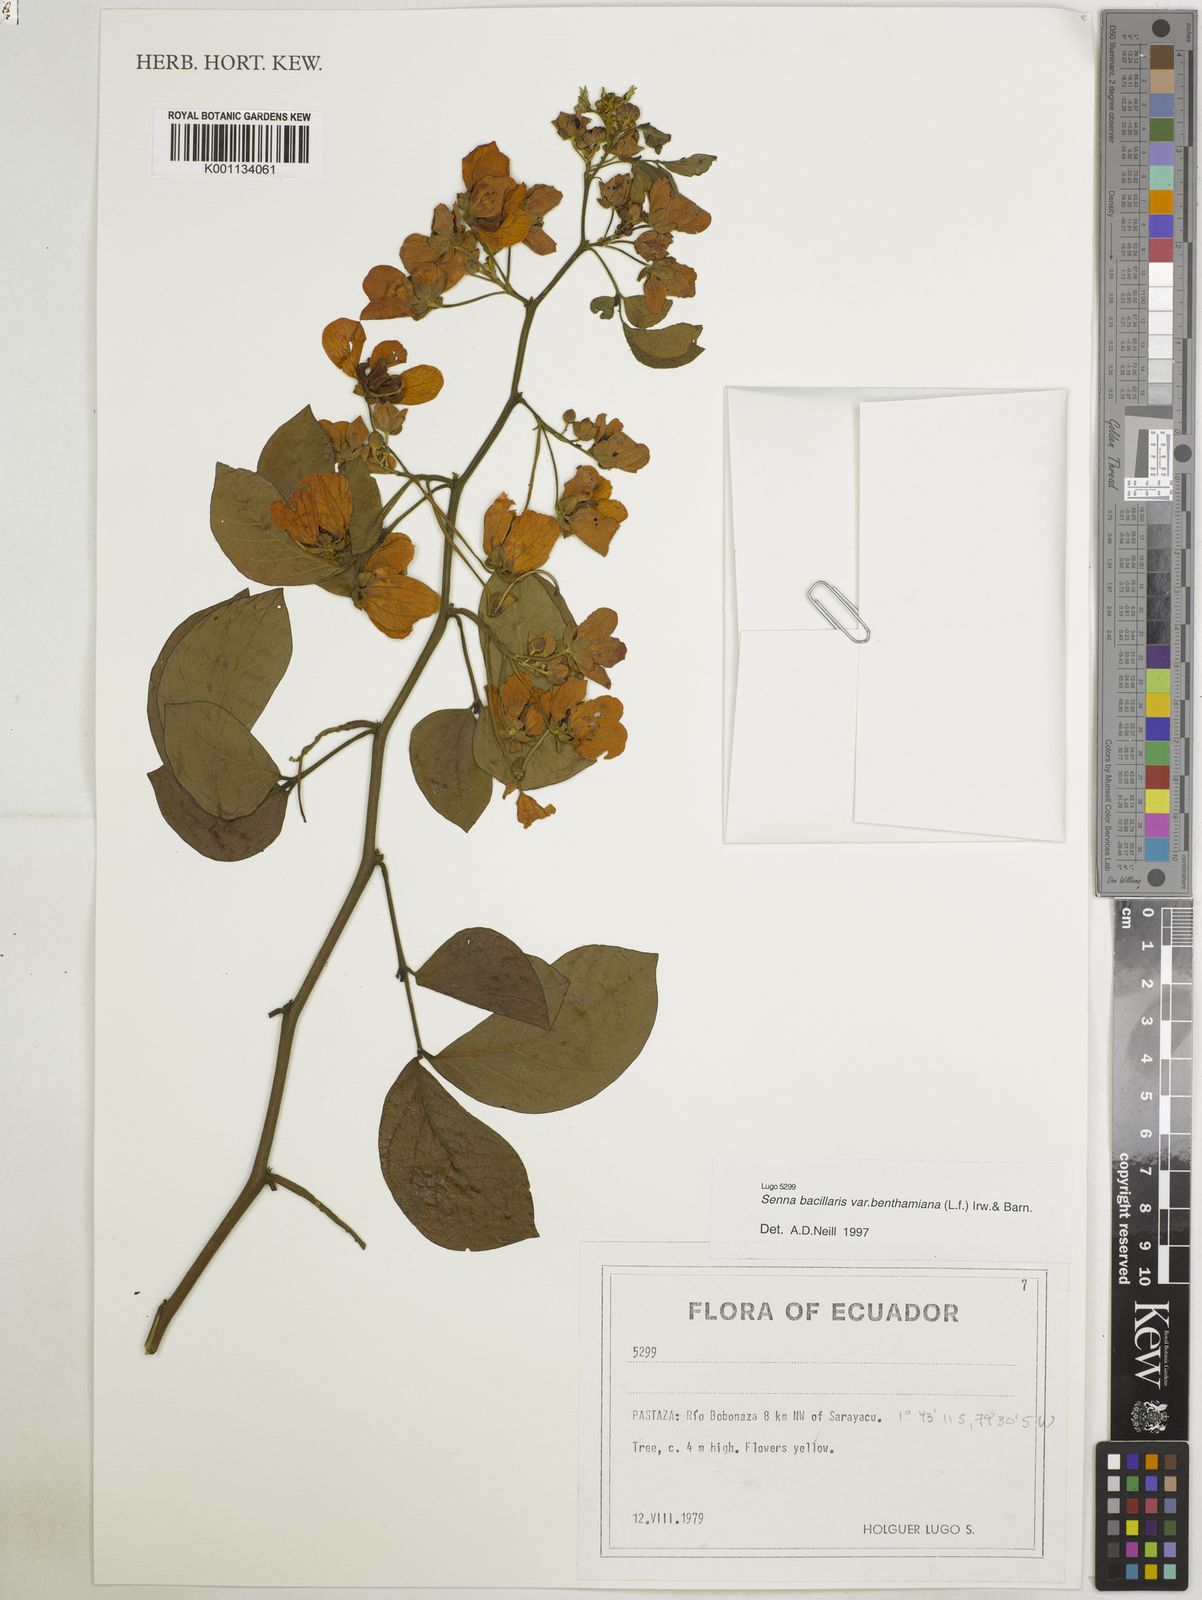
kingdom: Plantae
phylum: Tracheophyta
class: Magnoliopsida
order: Fabales
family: Fabaceae
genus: Senna
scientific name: Senna bacillaris
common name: West indian showertree
